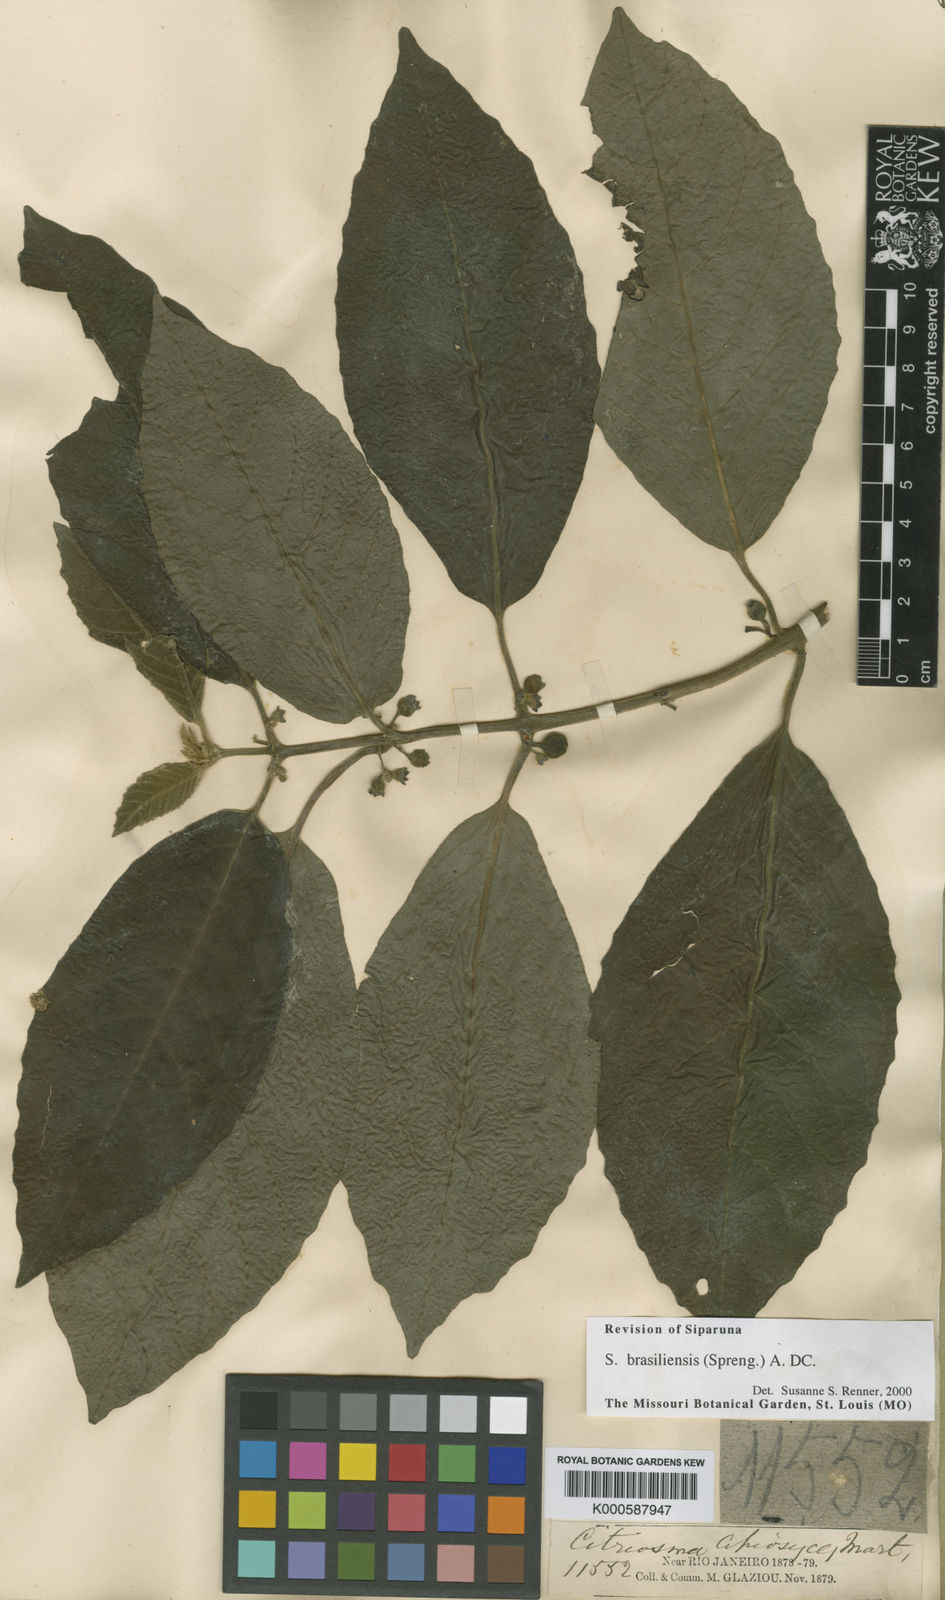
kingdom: Plantae
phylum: Tracheophyta
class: Magnoliopsida
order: Laurales
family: Siparunaceae
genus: Siparuna
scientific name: Siparuna brasiliensis
